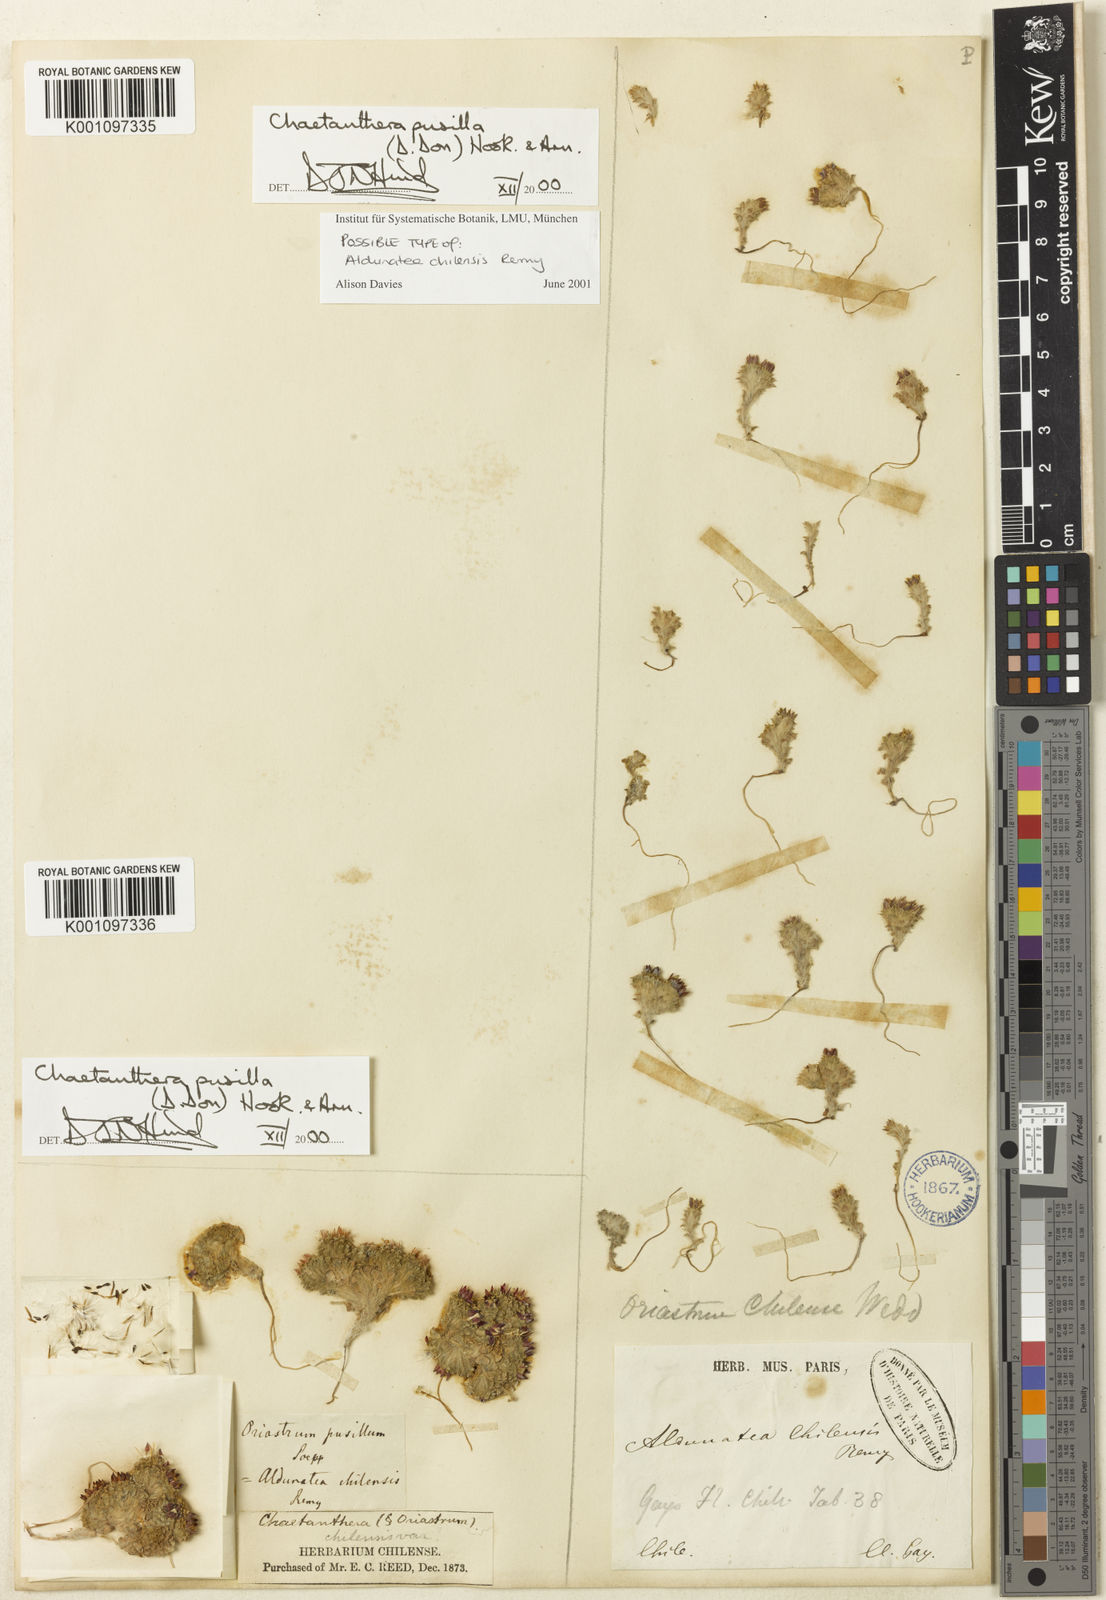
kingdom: Plantae
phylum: Tracheophyta
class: Magnoliopsida
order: Asterales
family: Asteraceae
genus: Oriastrum
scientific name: Oriastrum pusillum
